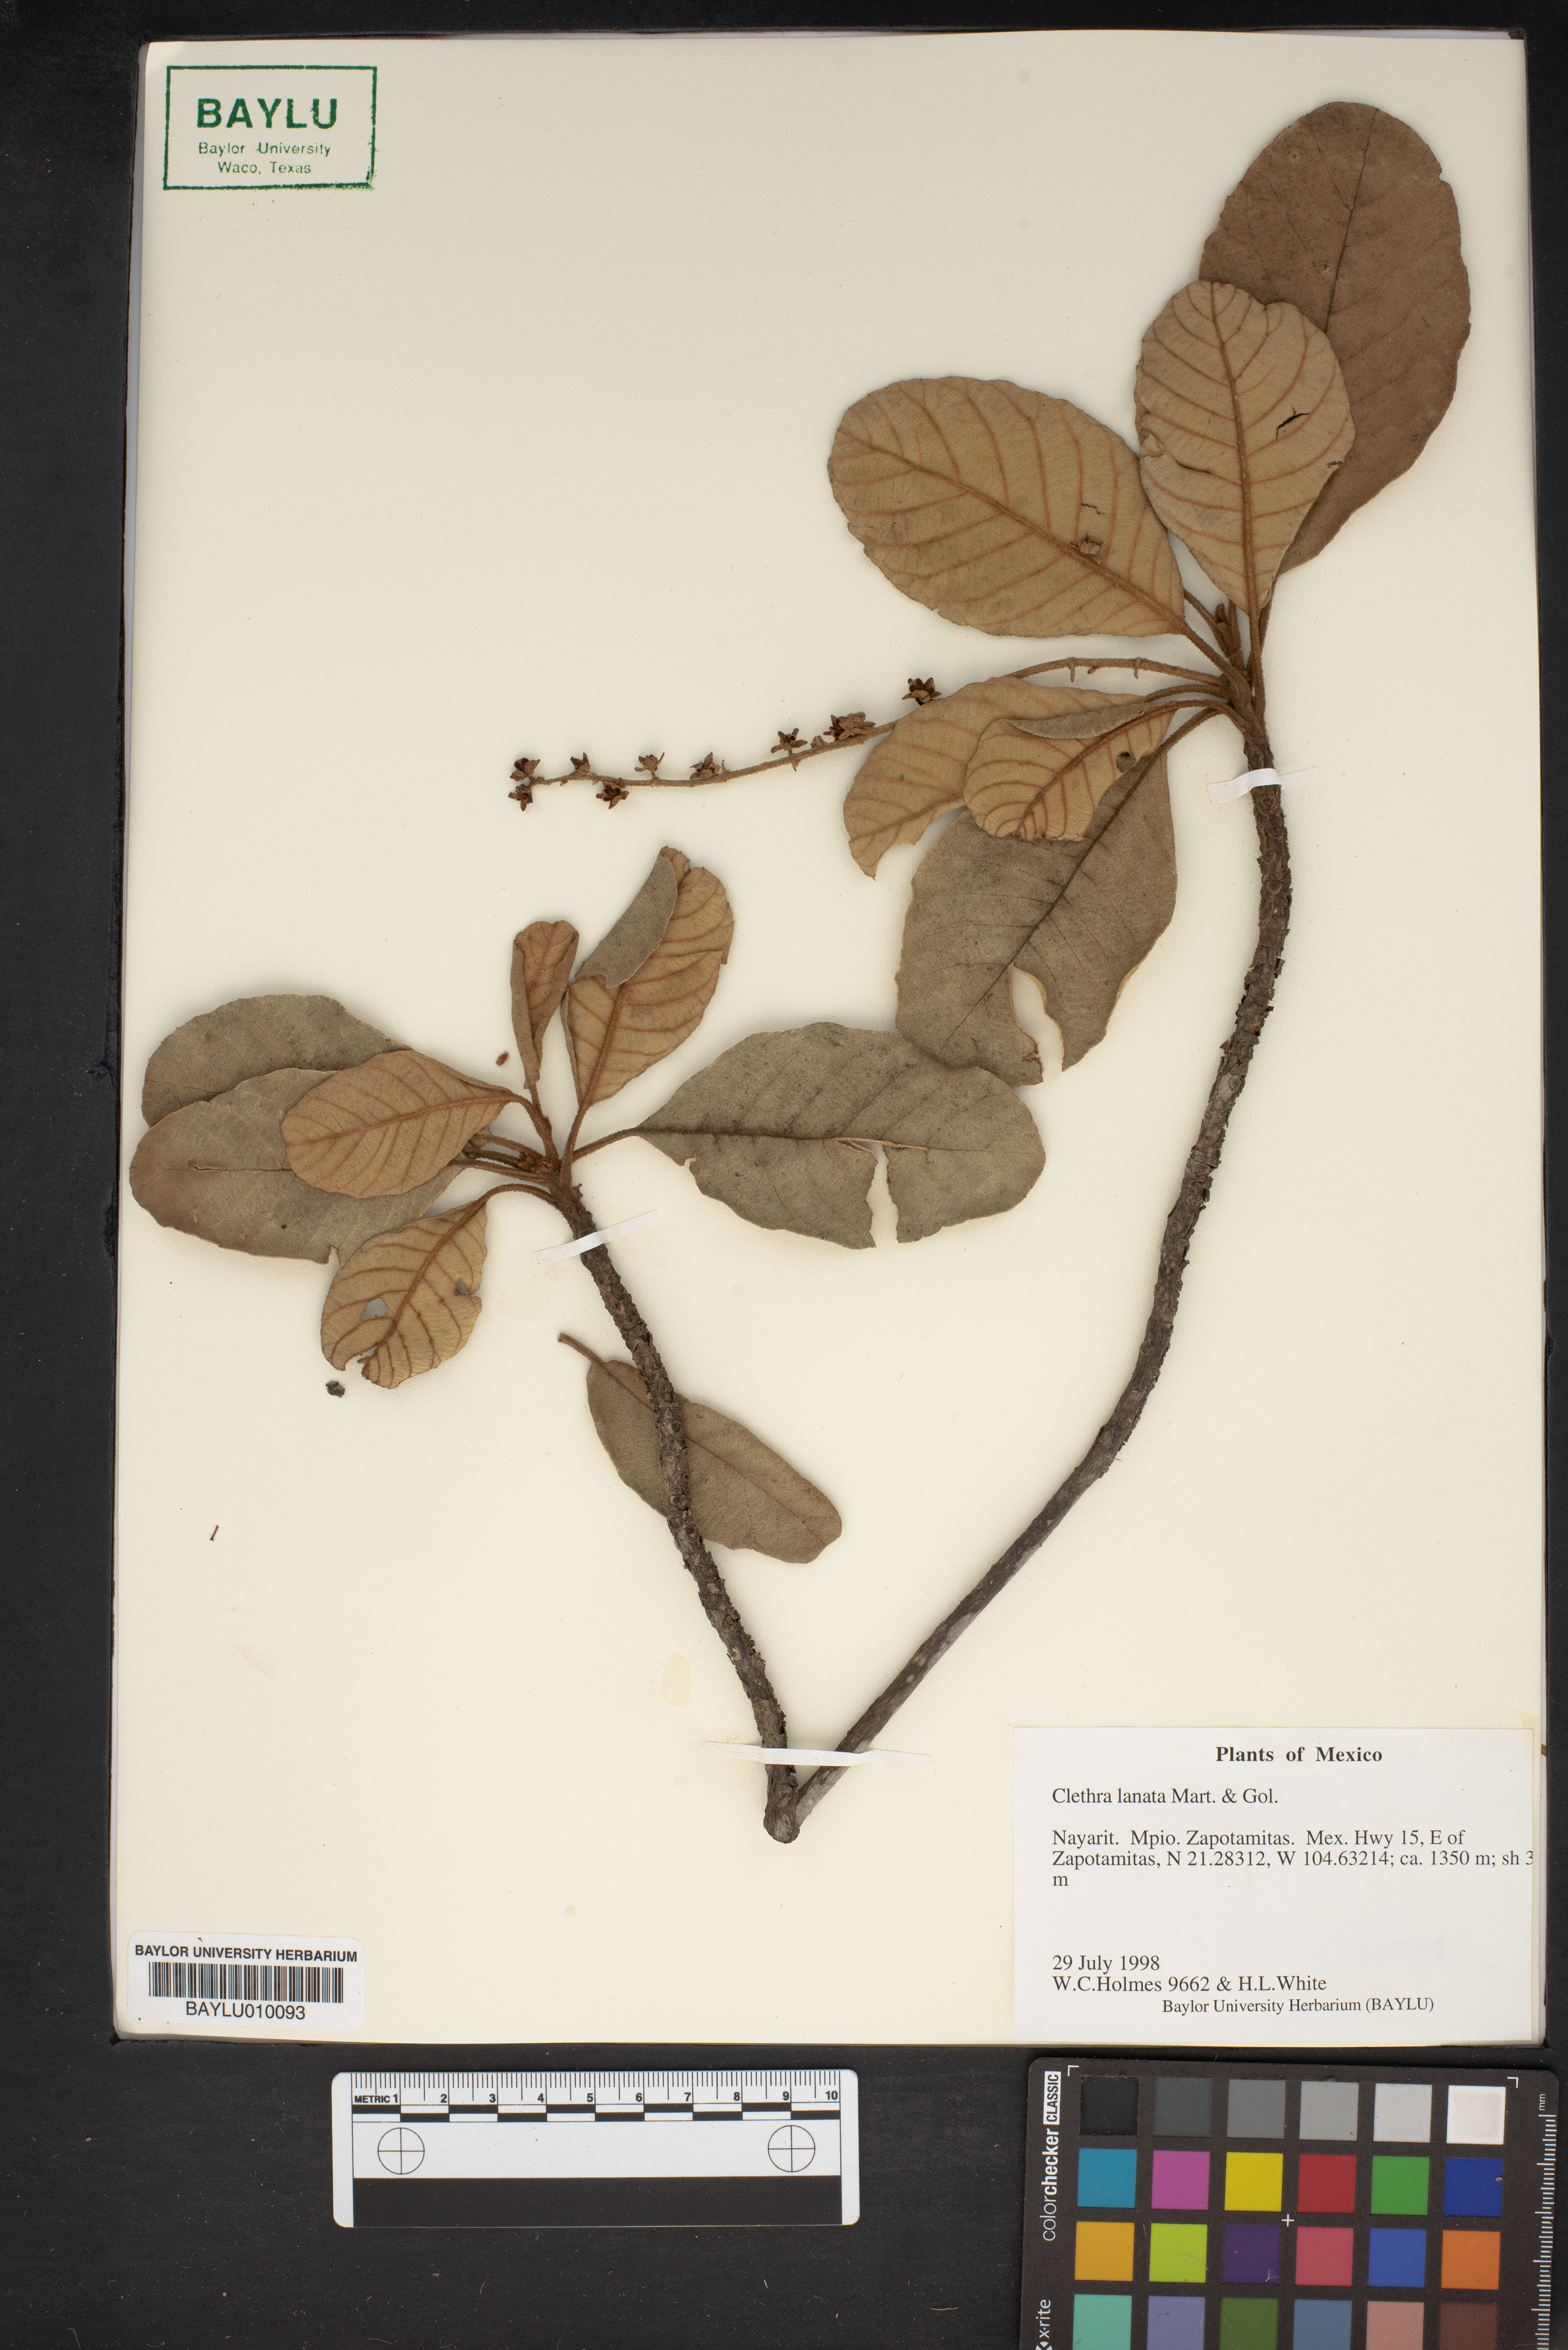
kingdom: Plantae
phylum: Tracheophyta
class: Magnoliopsida
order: Ericales
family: Clethraceae
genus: Clethra
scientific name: Clethra lanata
